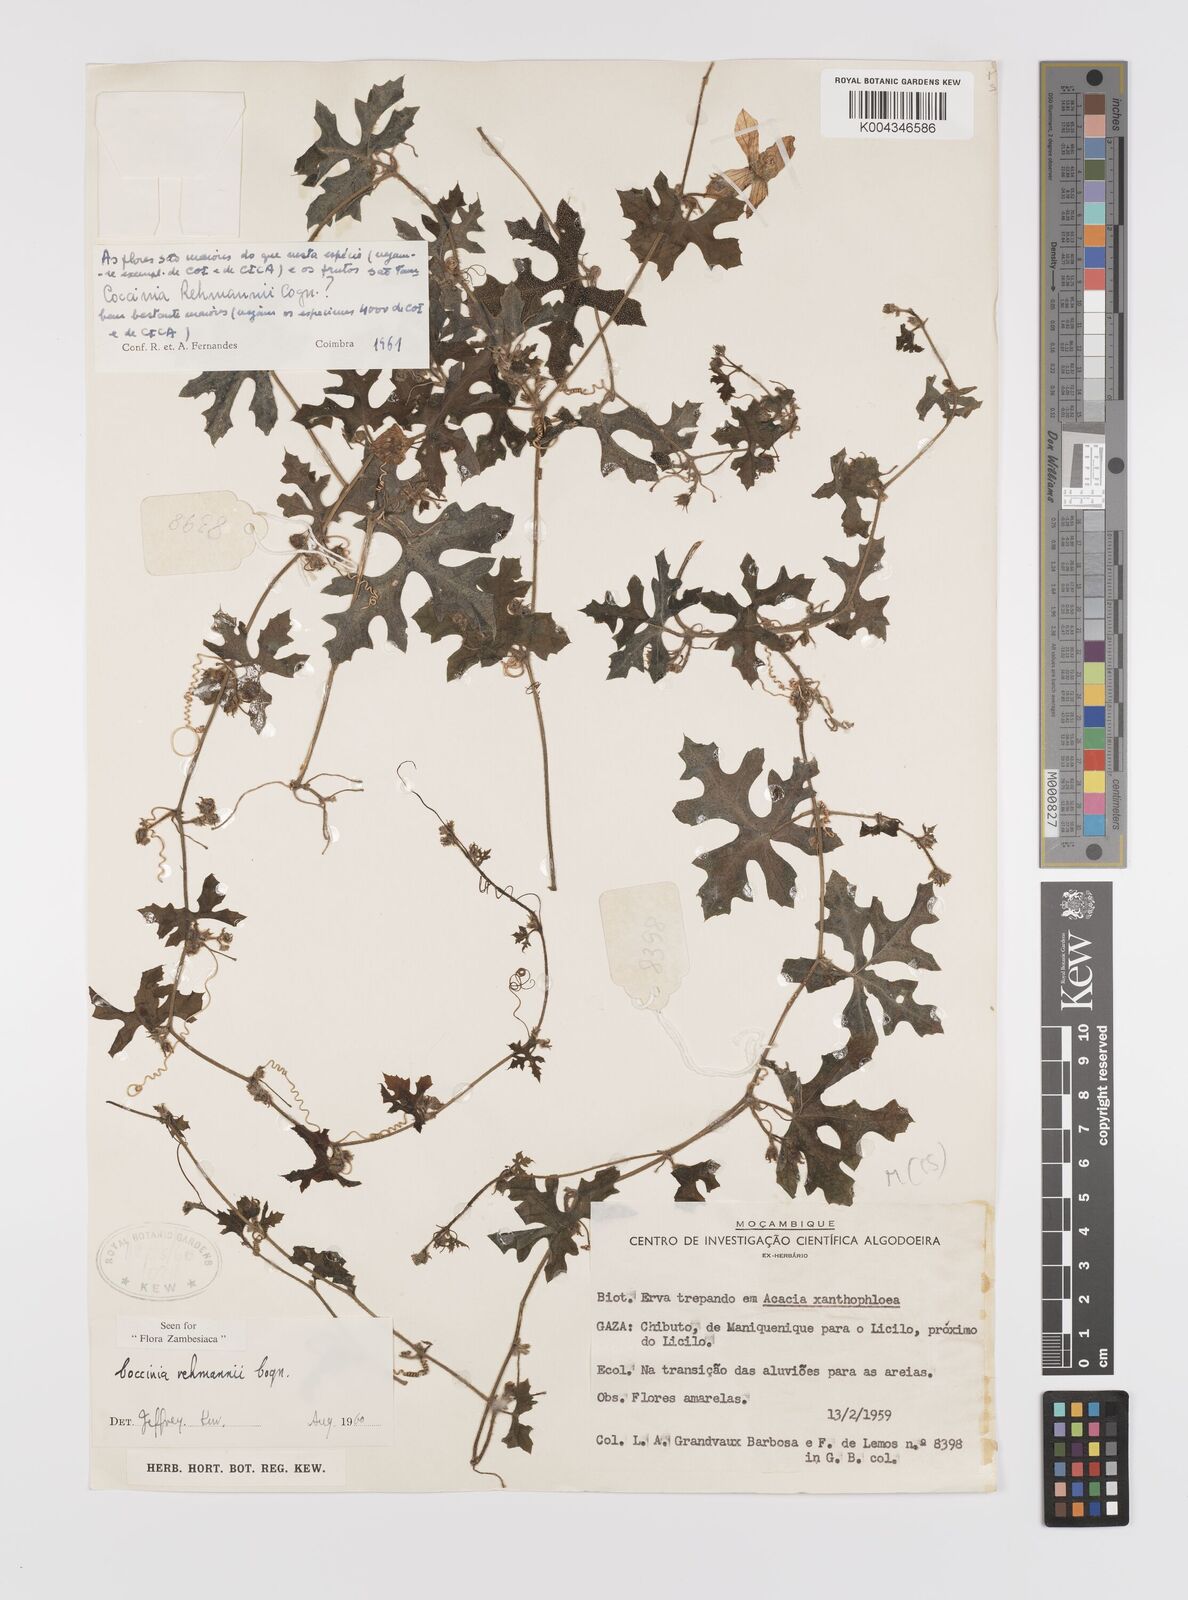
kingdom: Plantae
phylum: Tracheophyta
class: Magnoliopsida
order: Cucurbitales
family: Cucurbitaceae
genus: Coccinia
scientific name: Coccinia rehmannii
